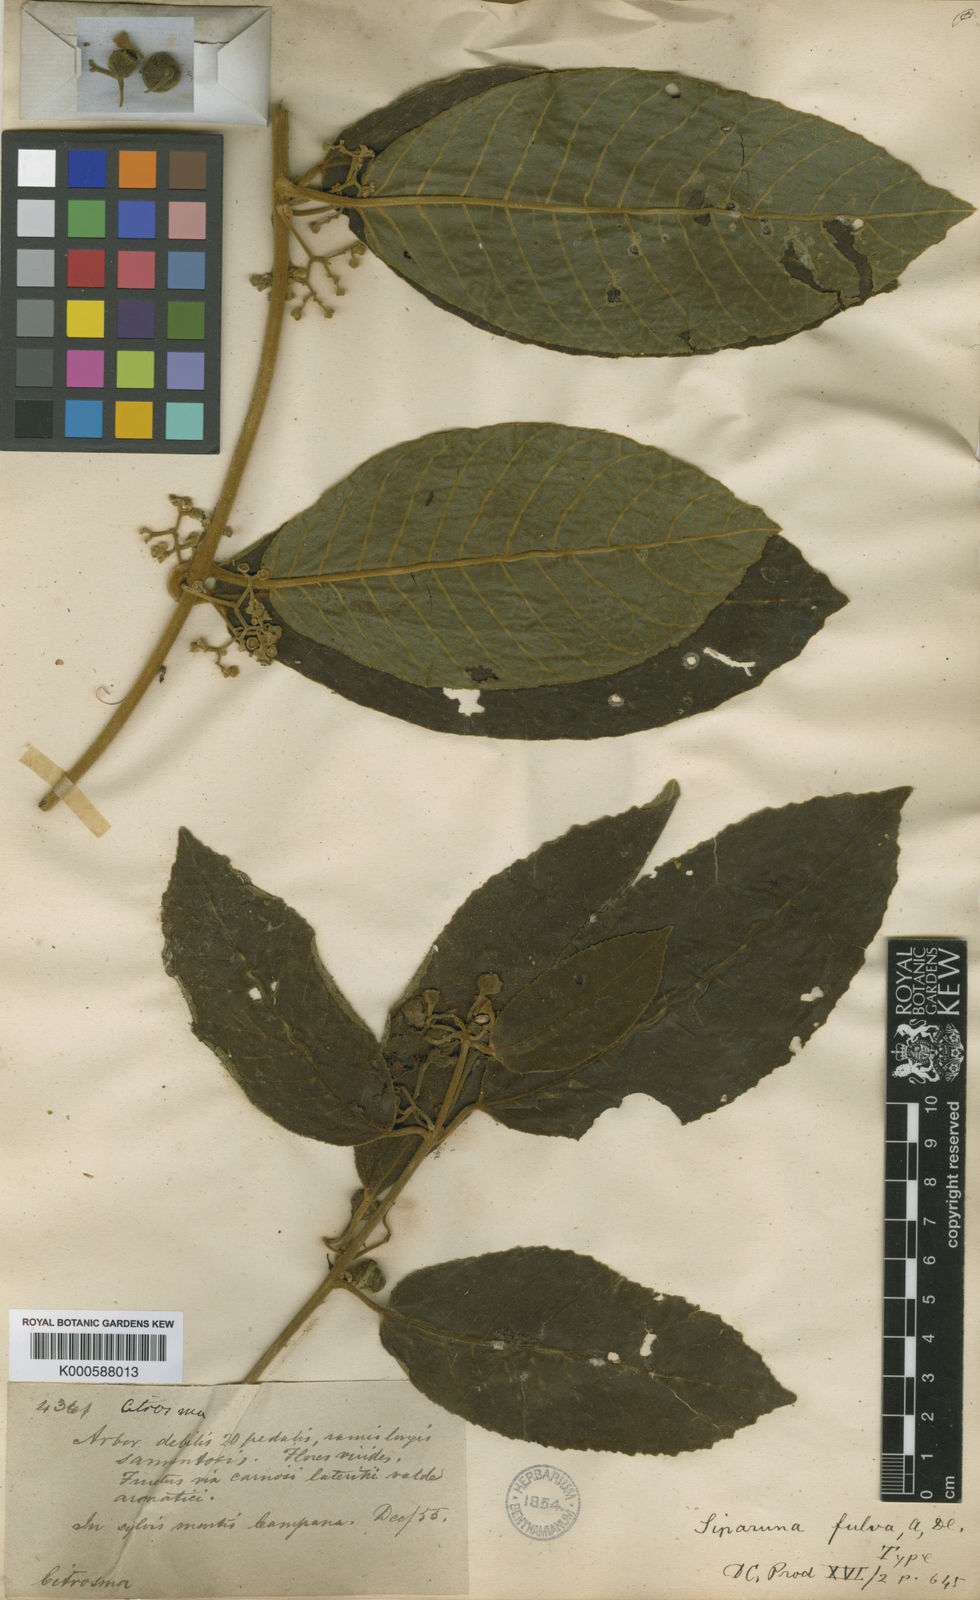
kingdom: Plantae
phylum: Tracheophyta
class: Magnoliopsida
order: Laurales
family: Siparunaceae
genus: Siparuna
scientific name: Siparuna tomentosa
